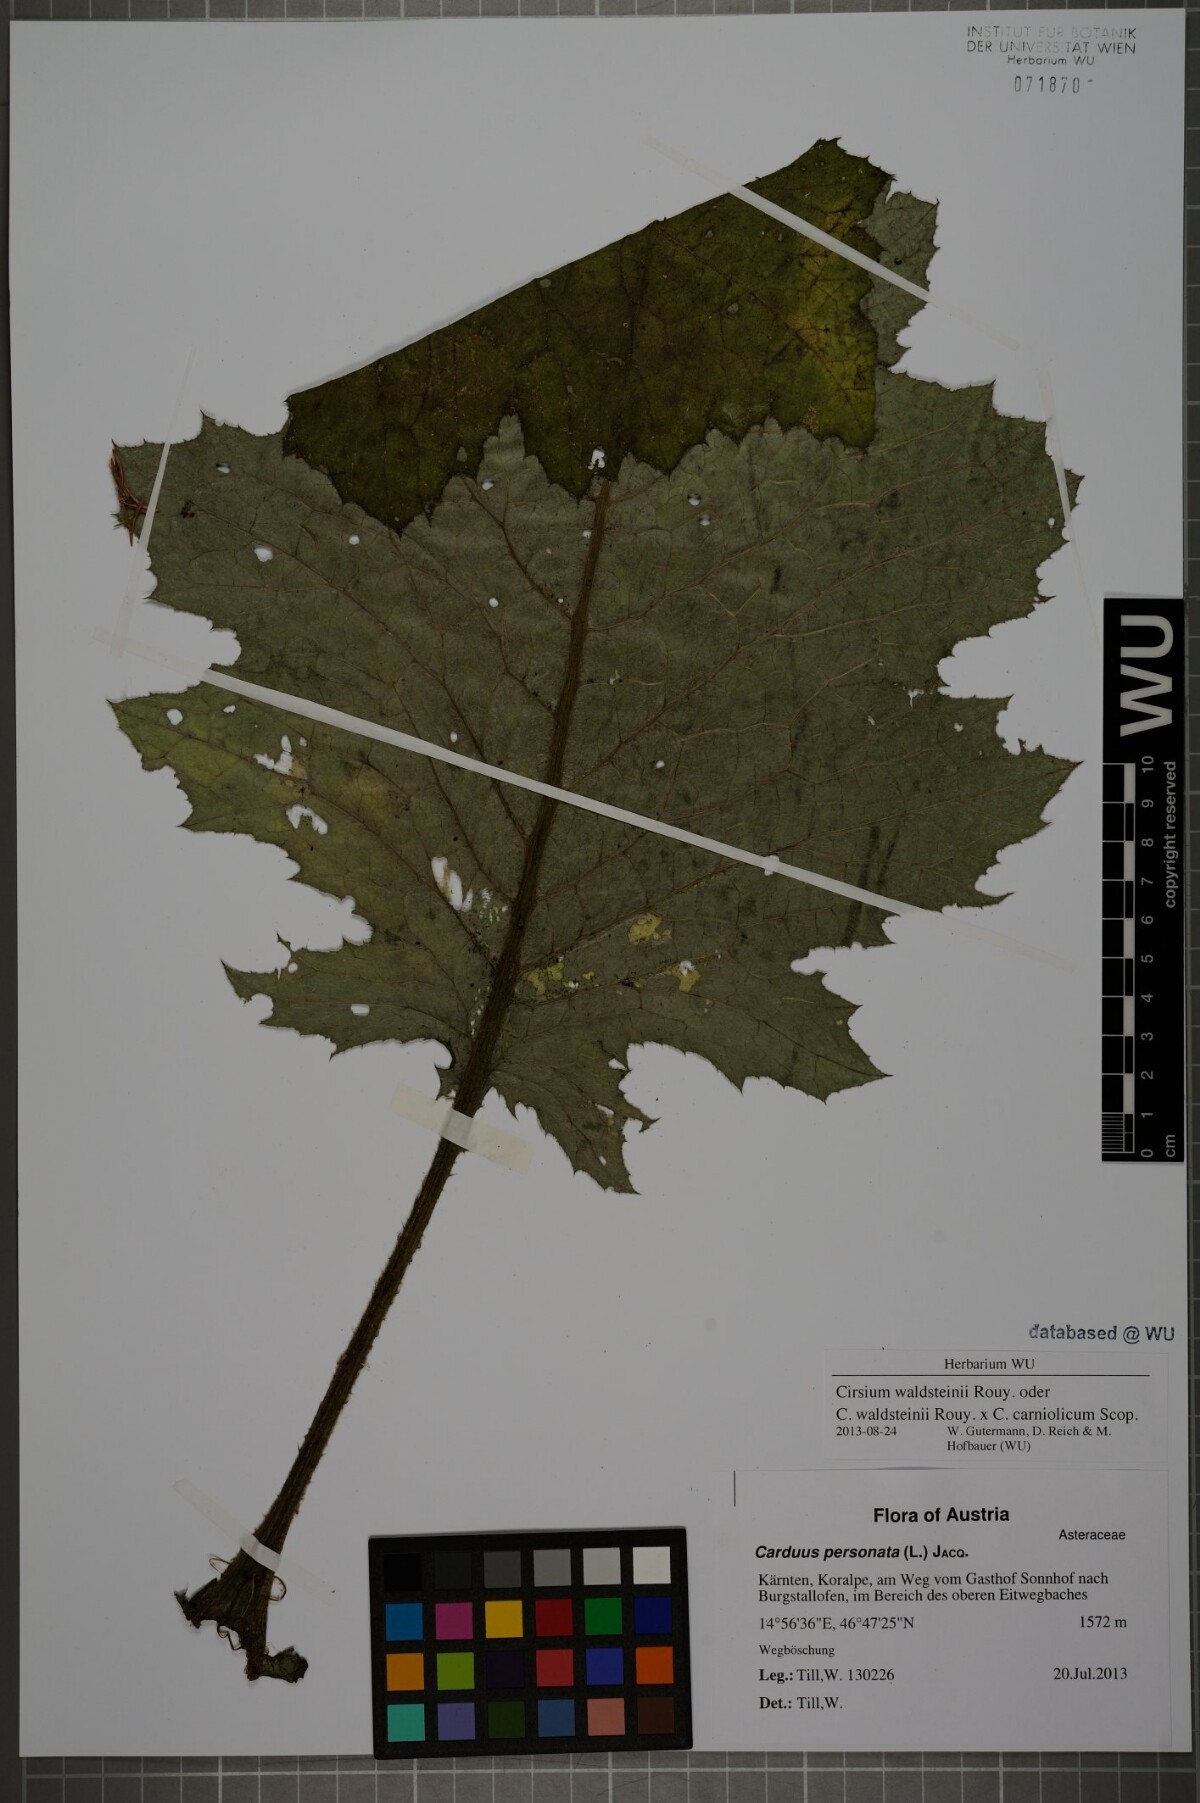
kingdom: Plantae
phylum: Tracheophyta
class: Magnoliopsida
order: Asterales
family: Asteraceae
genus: Cirsium
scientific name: Cirsium greimleri
